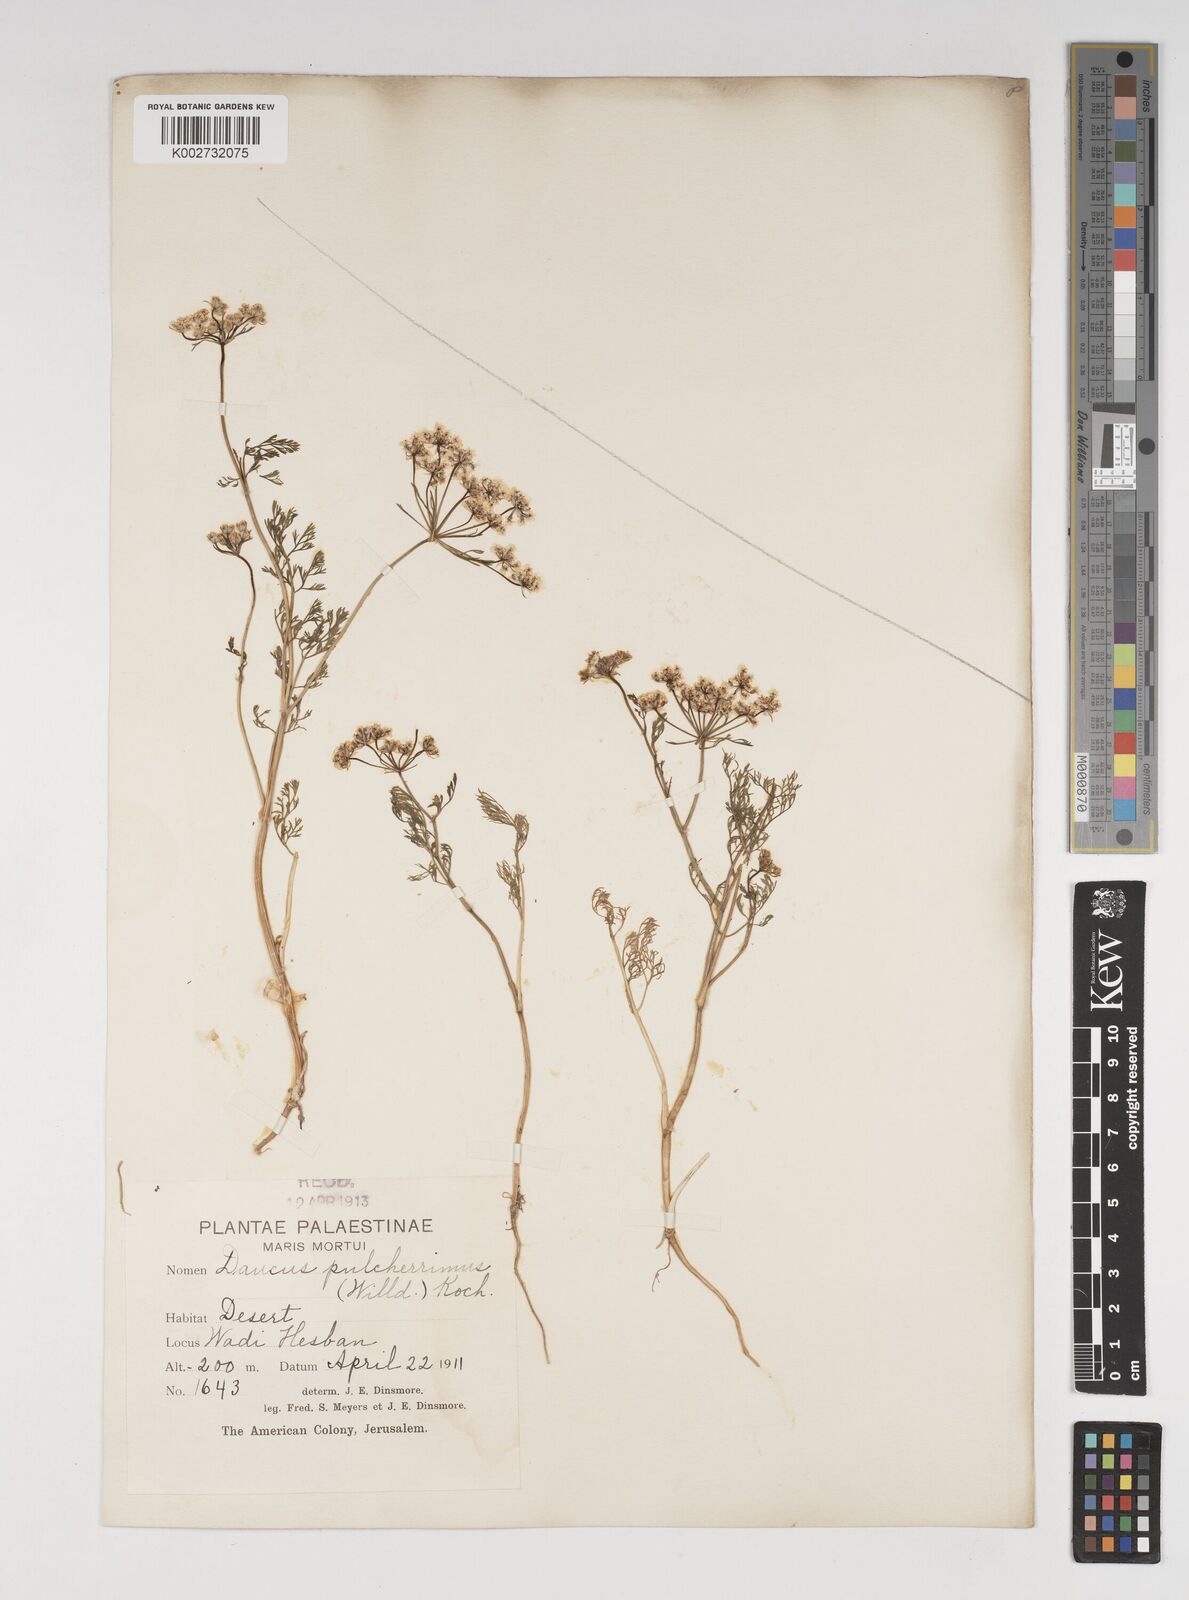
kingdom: Plantae
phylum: Tracheophyta
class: Magnoliopsida
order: Apiales
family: Apiaceae
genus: Astrodaucus
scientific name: Astrodaucus
